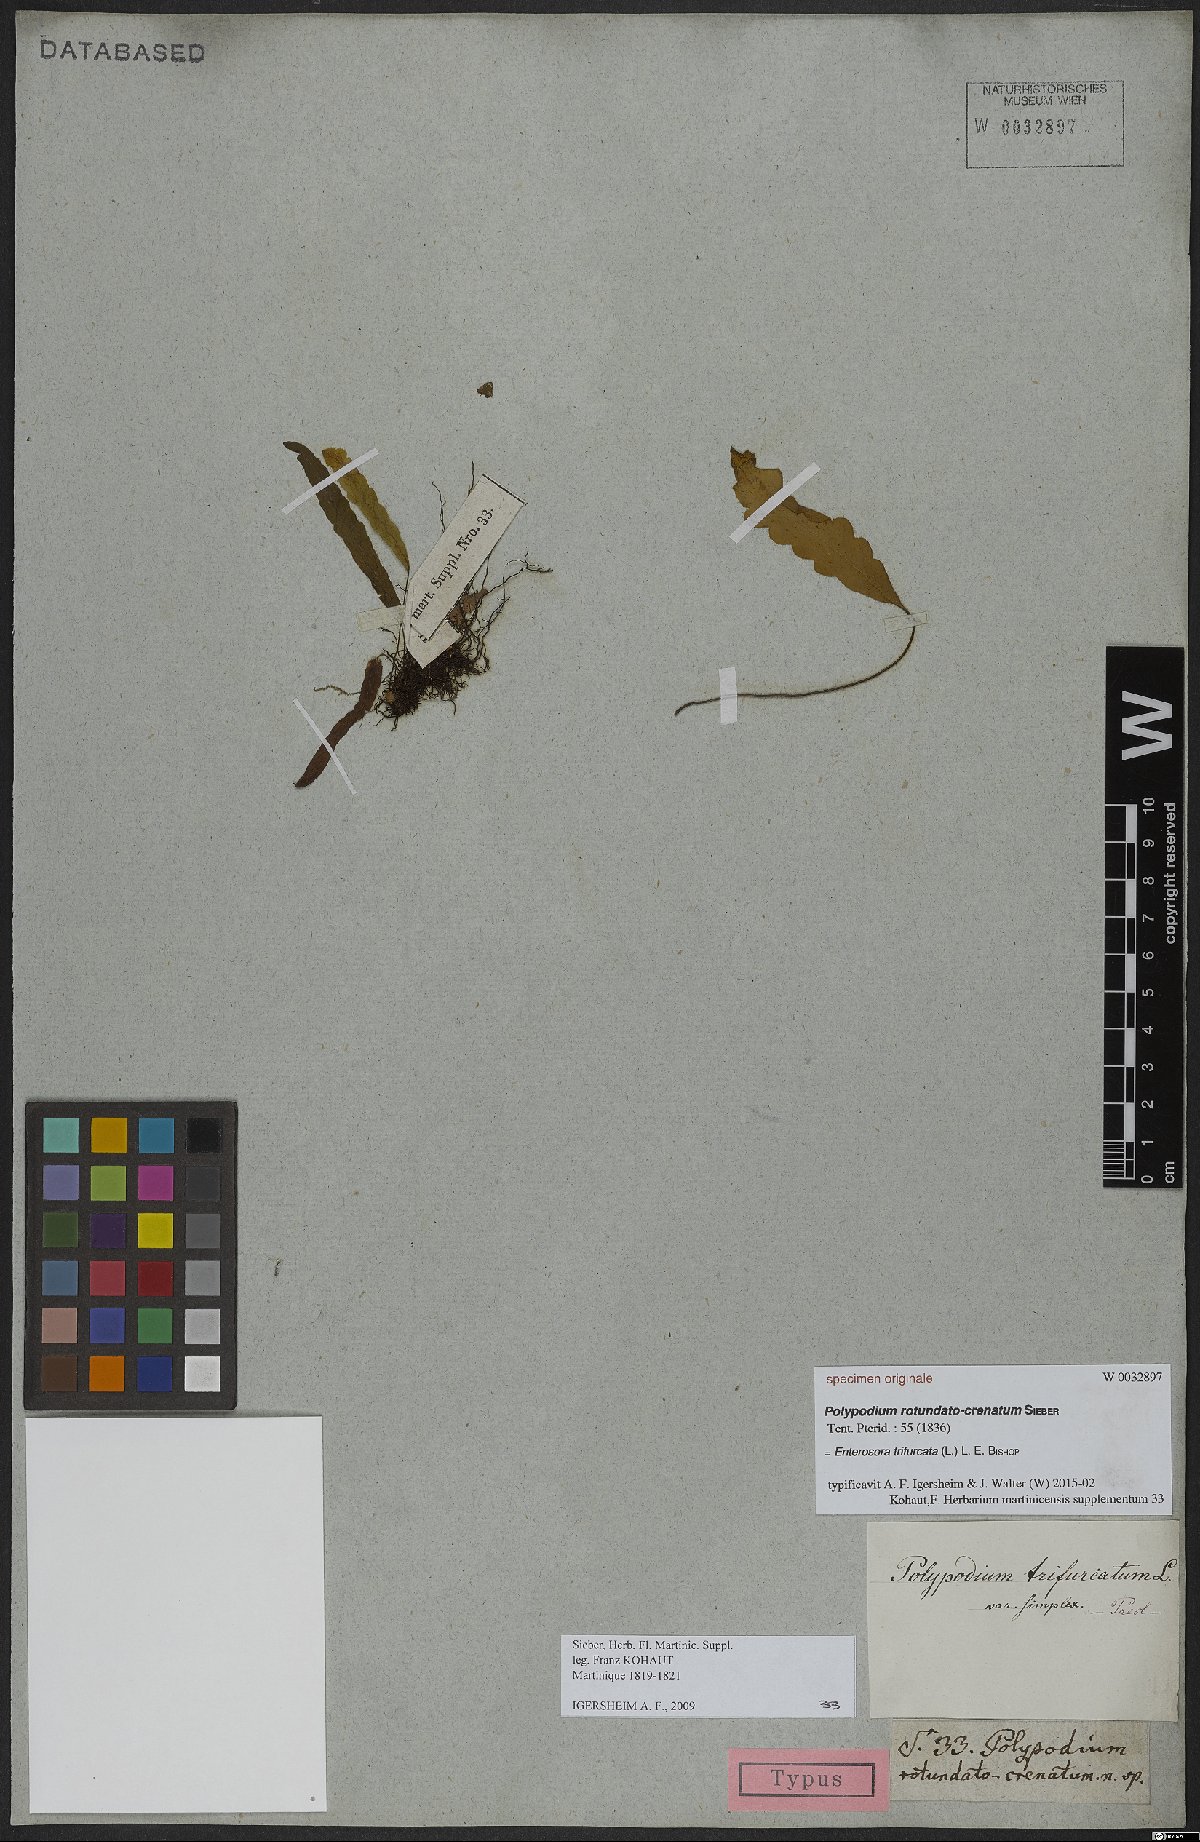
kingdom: Plantae
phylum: Tracheophyta
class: Polypodiopsida
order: Polypodiales
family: Polypodiaceae
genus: Enterosora
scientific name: Enterosora trifurcata
